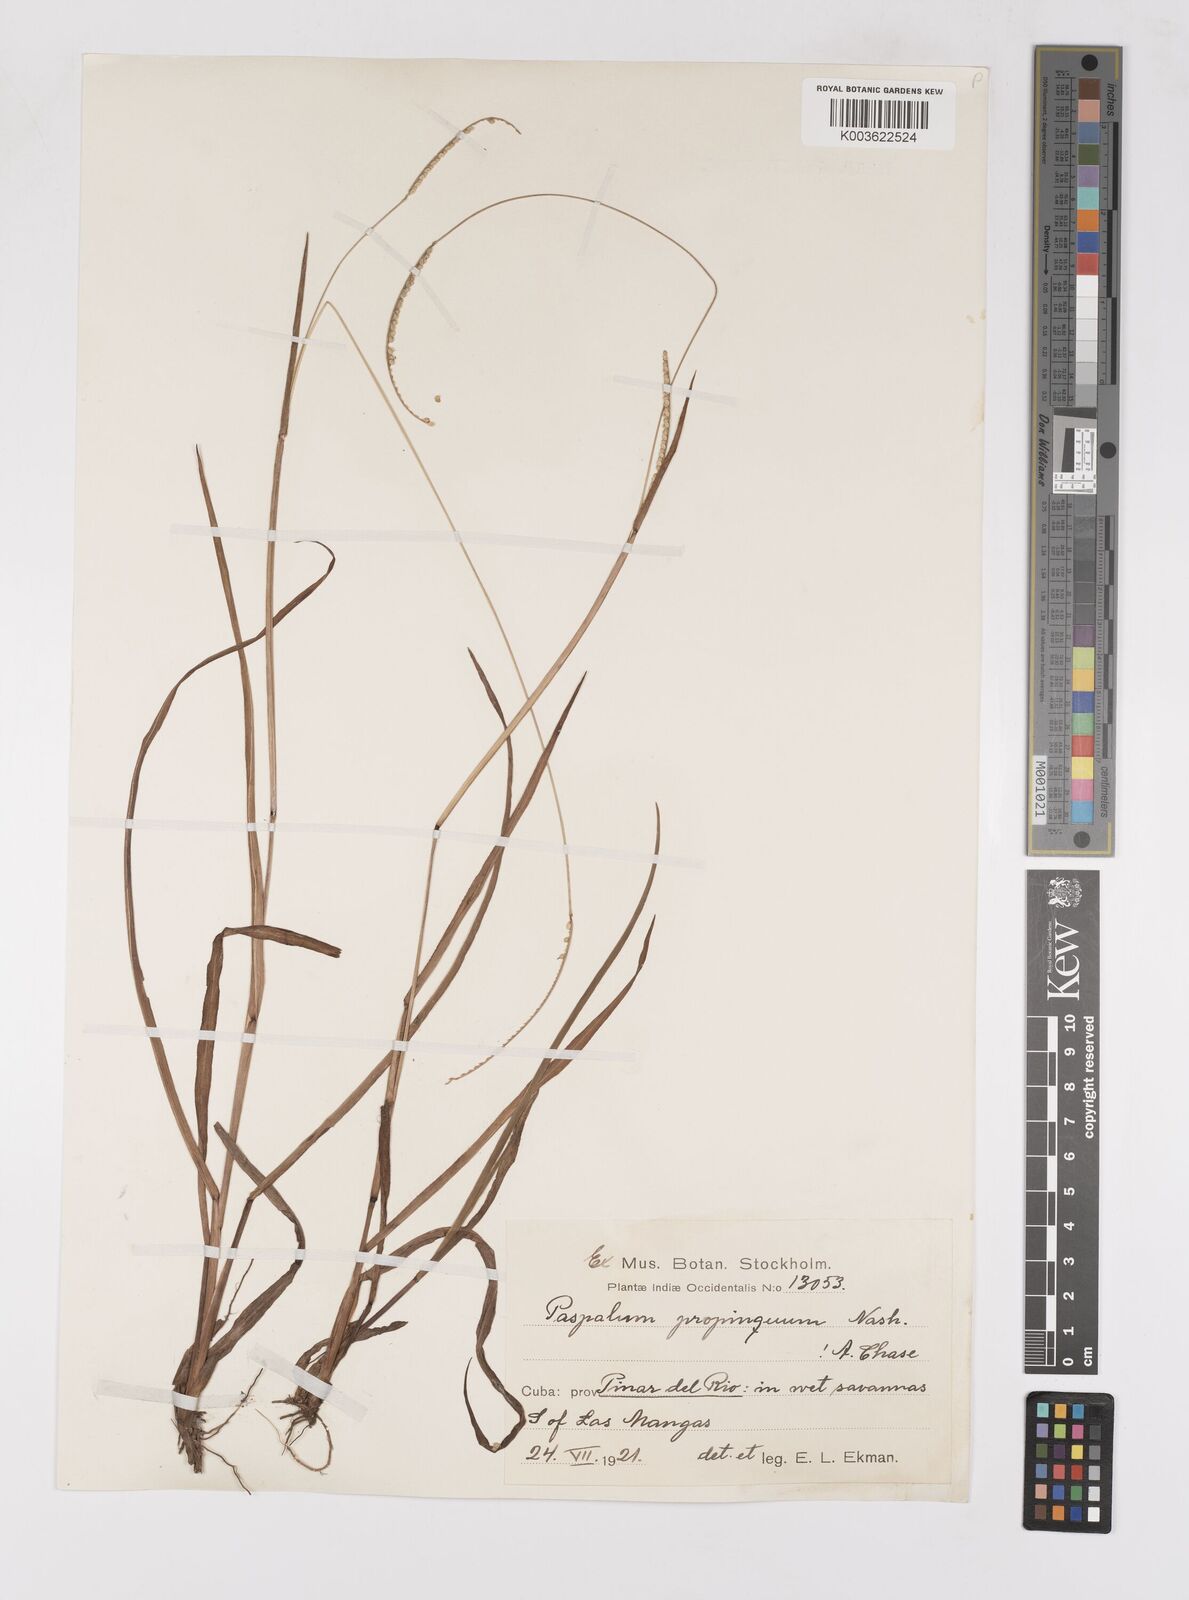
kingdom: Plantae
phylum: Tracheophyta
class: Liliopsida
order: Poales
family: Poaceae
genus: Paspalum
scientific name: Paspalum setaceum
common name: Slender paspalum
